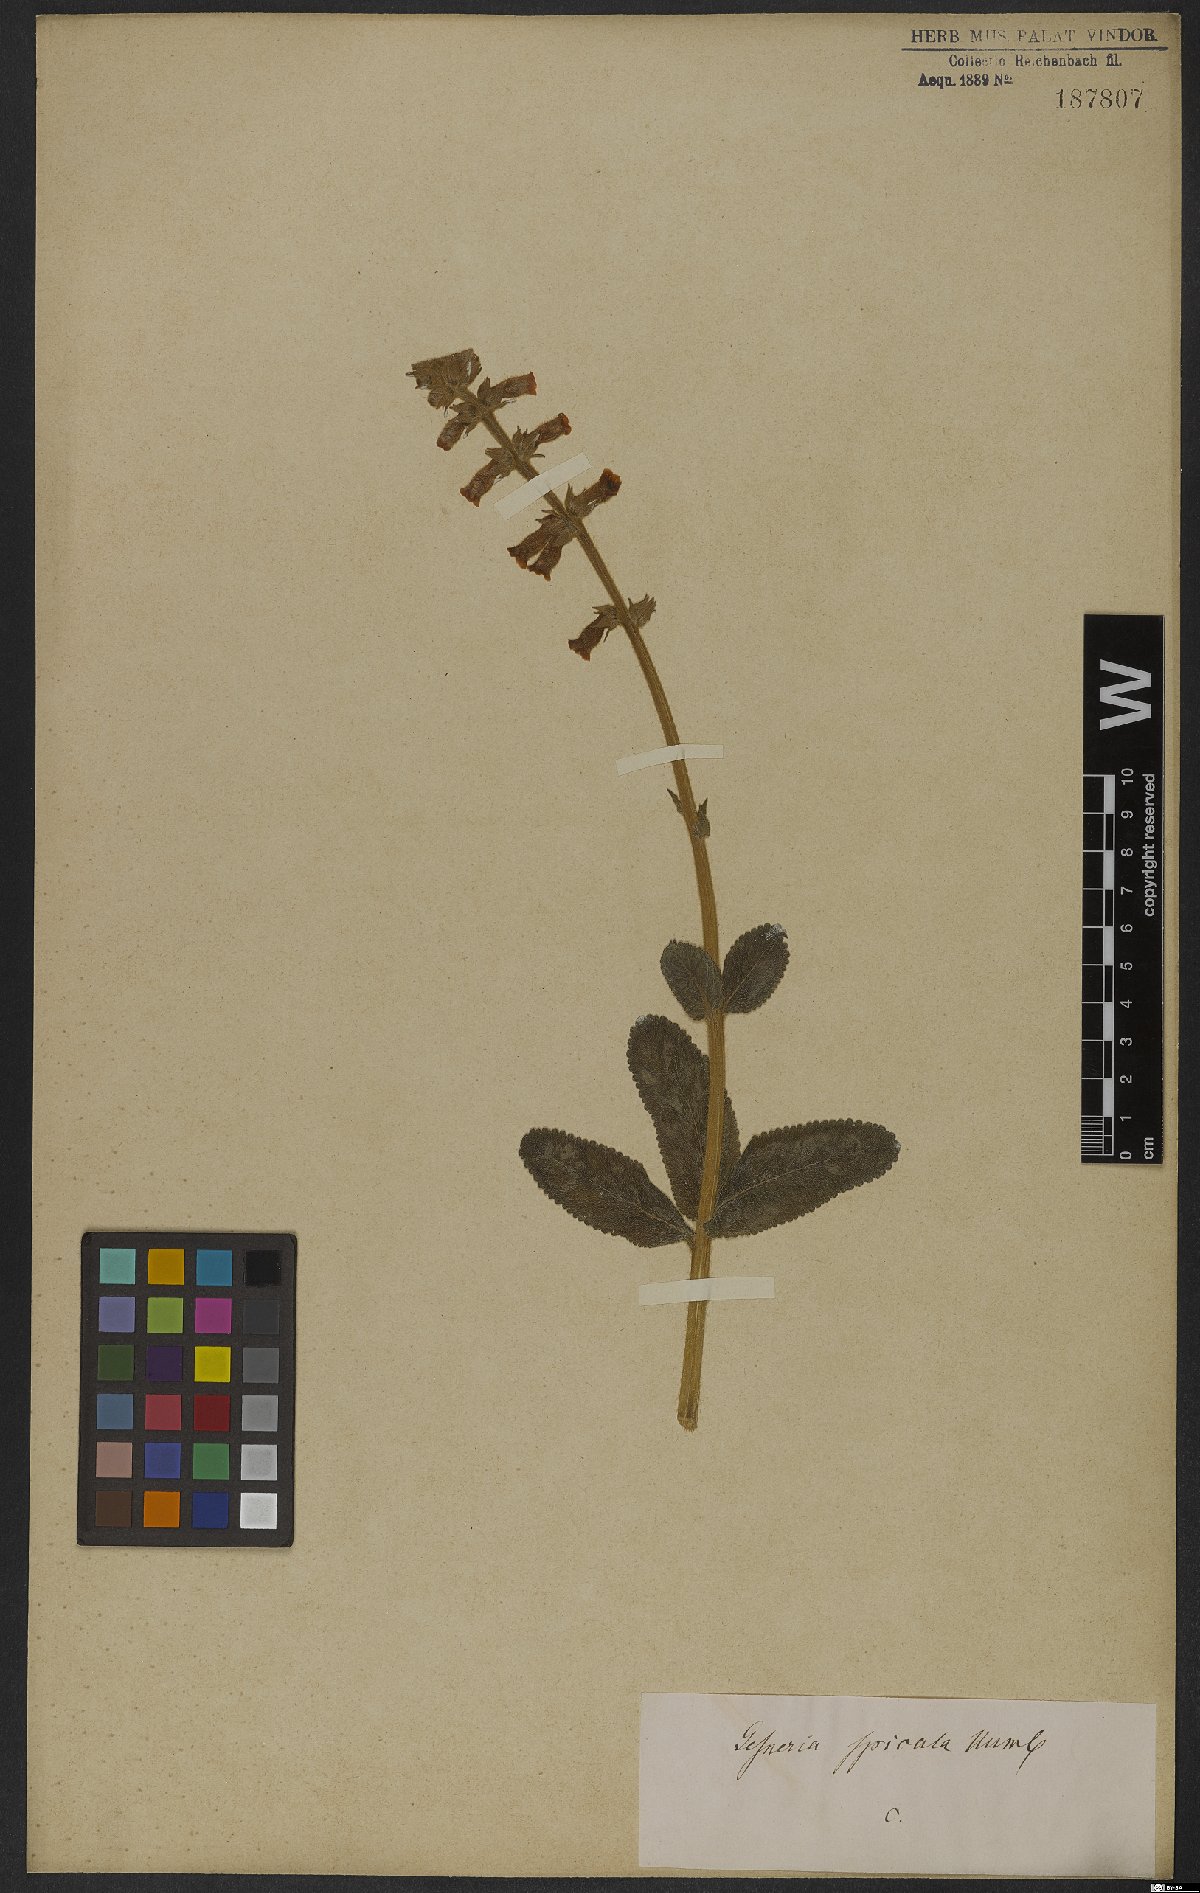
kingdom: Plantae
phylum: Tracheophyta
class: Magnoliopsida
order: Lamiales
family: Gesneriaceae
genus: Sinningia
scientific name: Sinningia allagophylla
